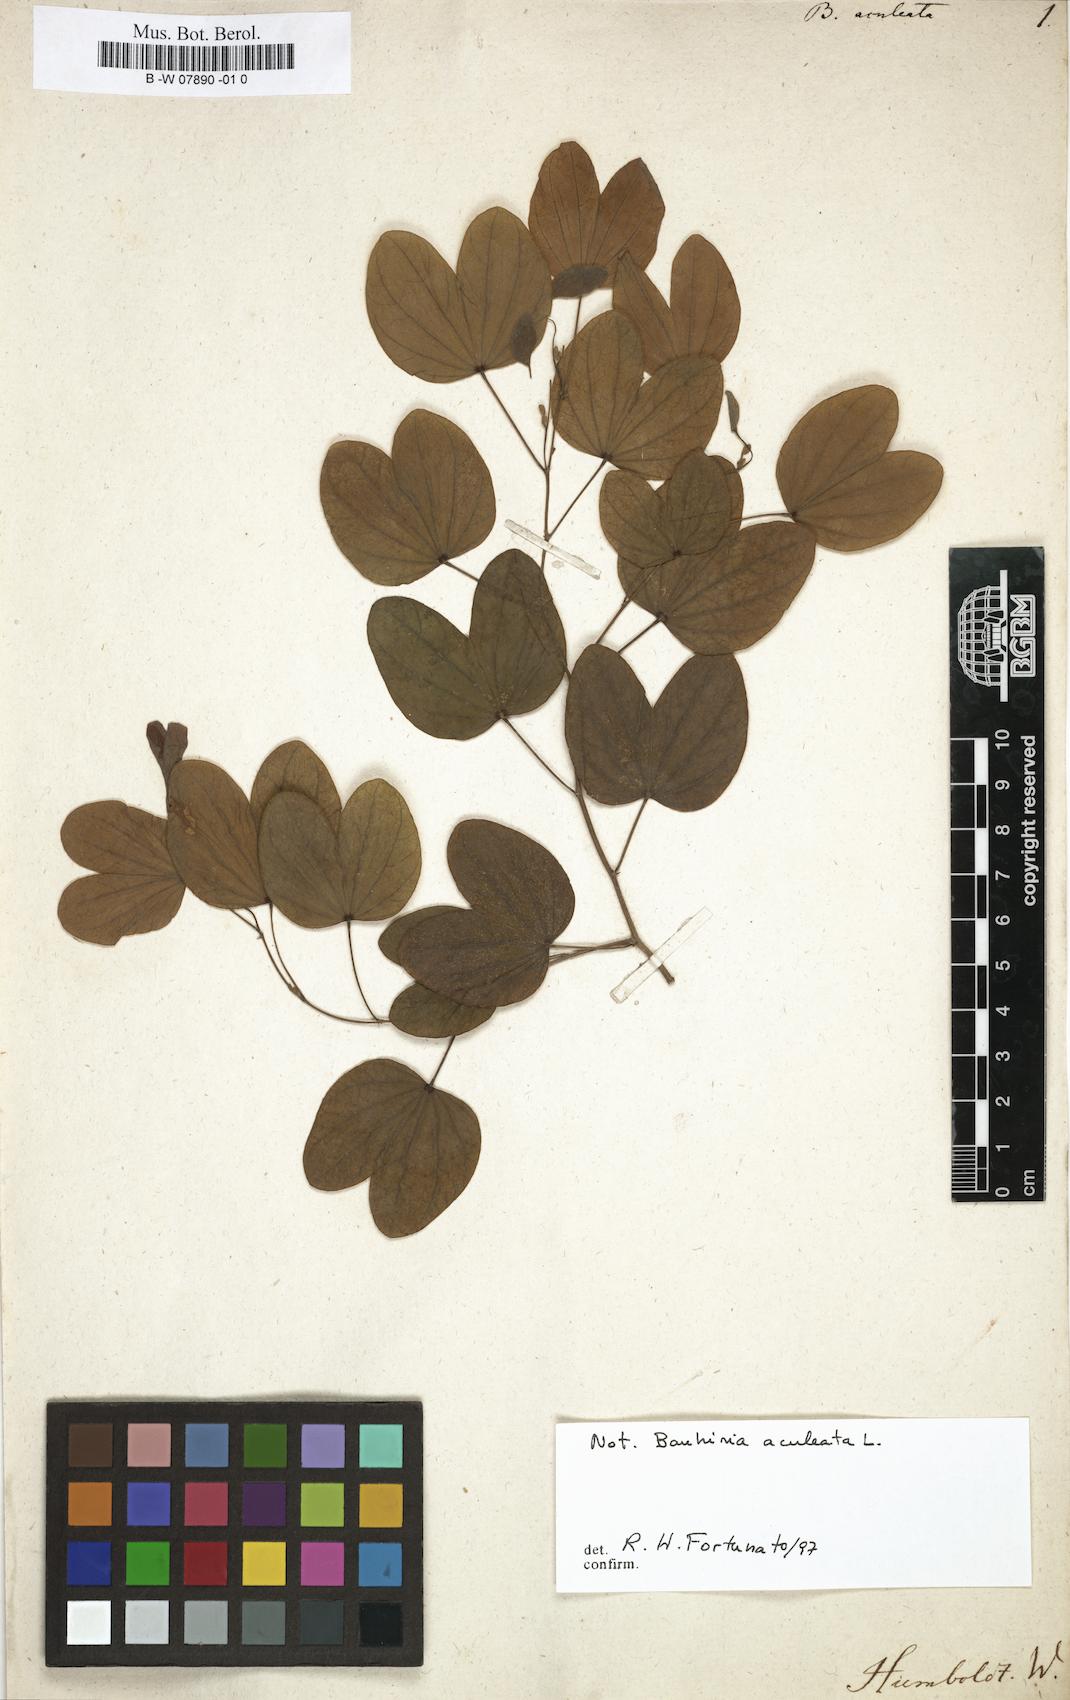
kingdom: Plantae
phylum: Tracheophyta
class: Magnoliopsida
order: Fabales
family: Fabaceae
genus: Bauhinia
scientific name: Bauhinia aculeata
